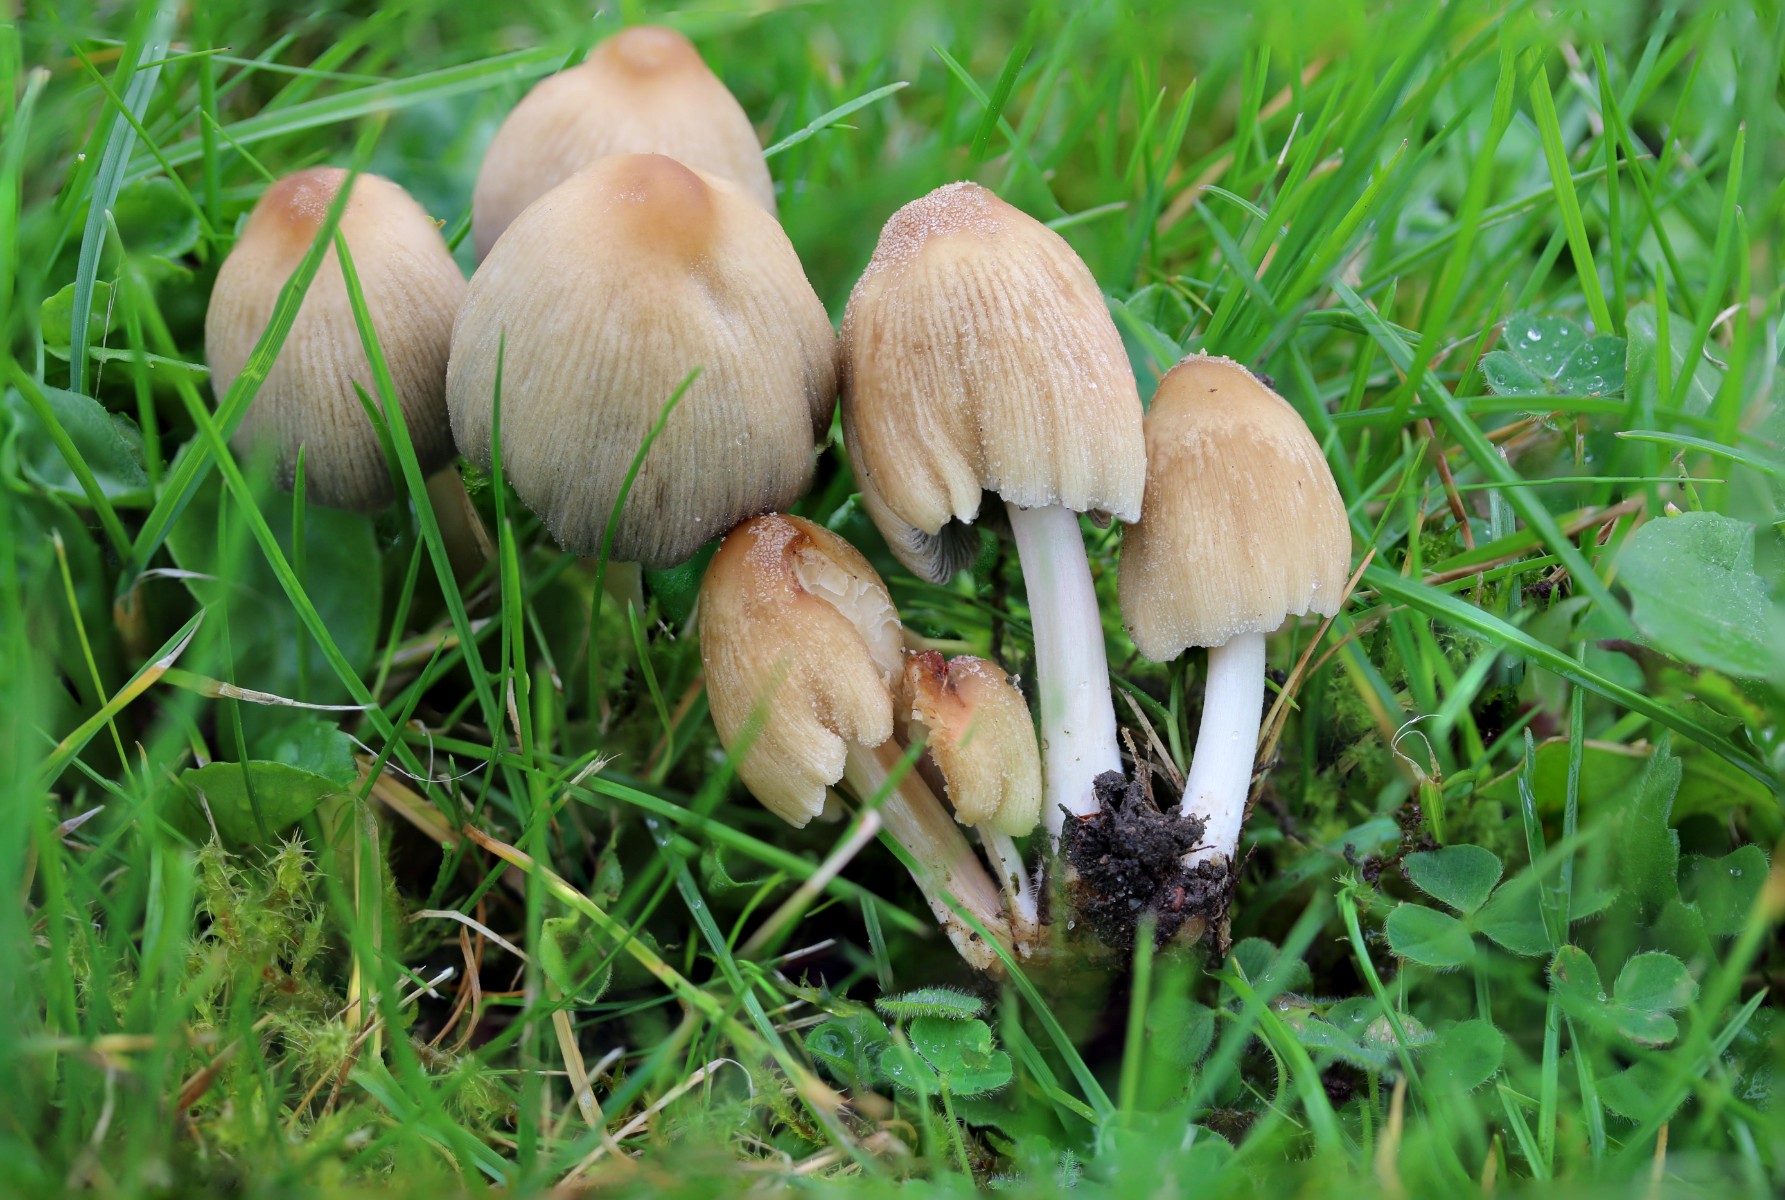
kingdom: Fungi
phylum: Basidiomycota
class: Agaricomycetes
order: Agaricales
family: Psathyrellaceae
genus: Coprinellus
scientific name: Coprinellus micaceus
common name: glimmer-blækhat
